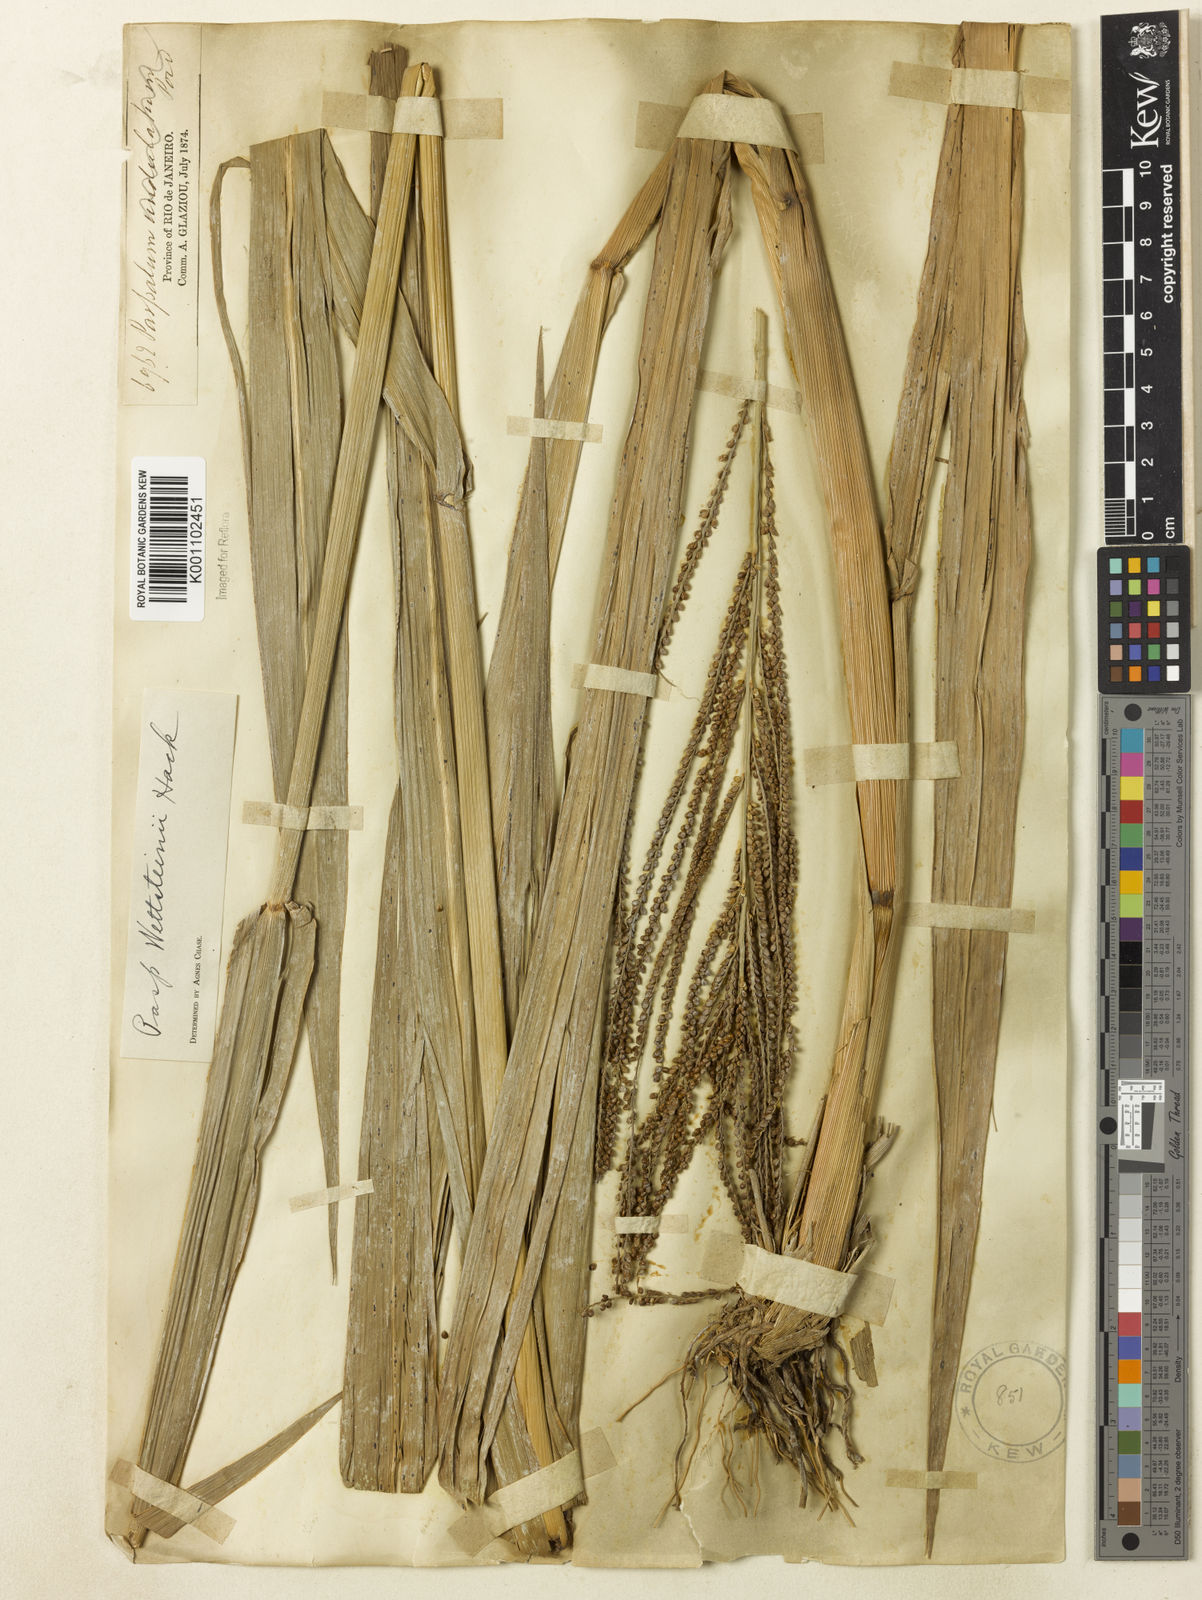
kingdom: Plantae
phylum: Tracheophyta
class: Liliopsida
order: Poales
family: Poaceae
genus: Paspalum
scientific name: Paspalum virgatum
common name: Talquezal
